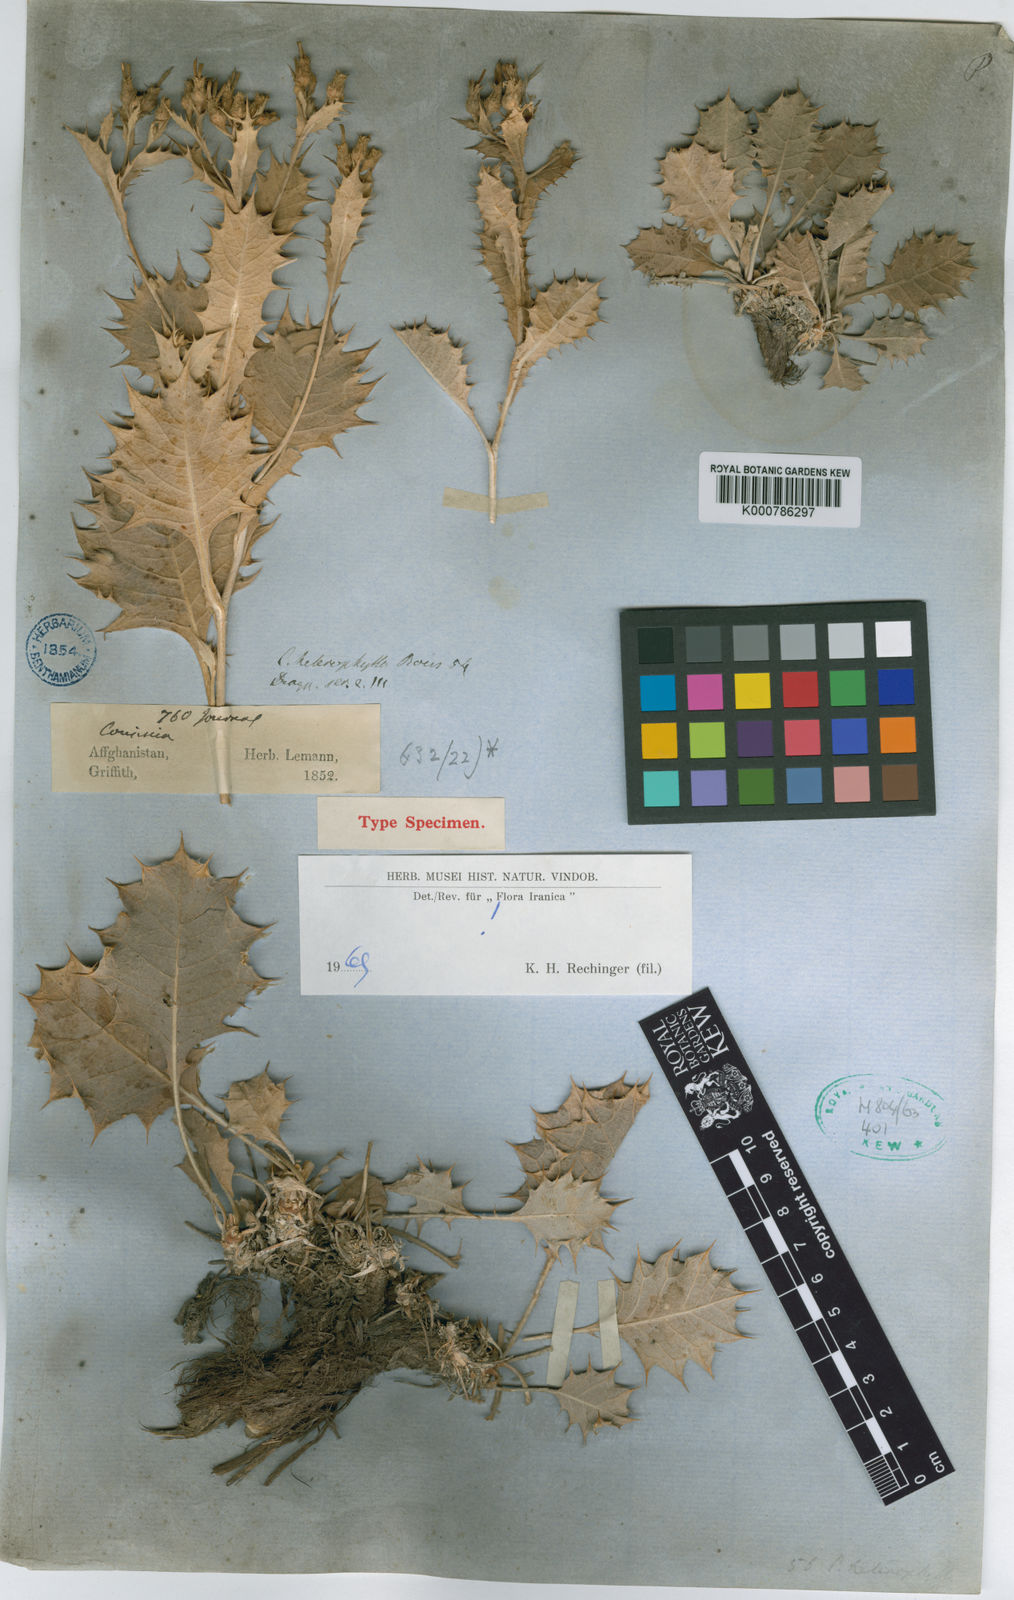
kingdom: Plantae
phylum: Tracheophyta
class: Magnoliopsida
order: Asterales
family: Asteraceae
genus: Cousinia
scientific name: Cousinia heterophylla
